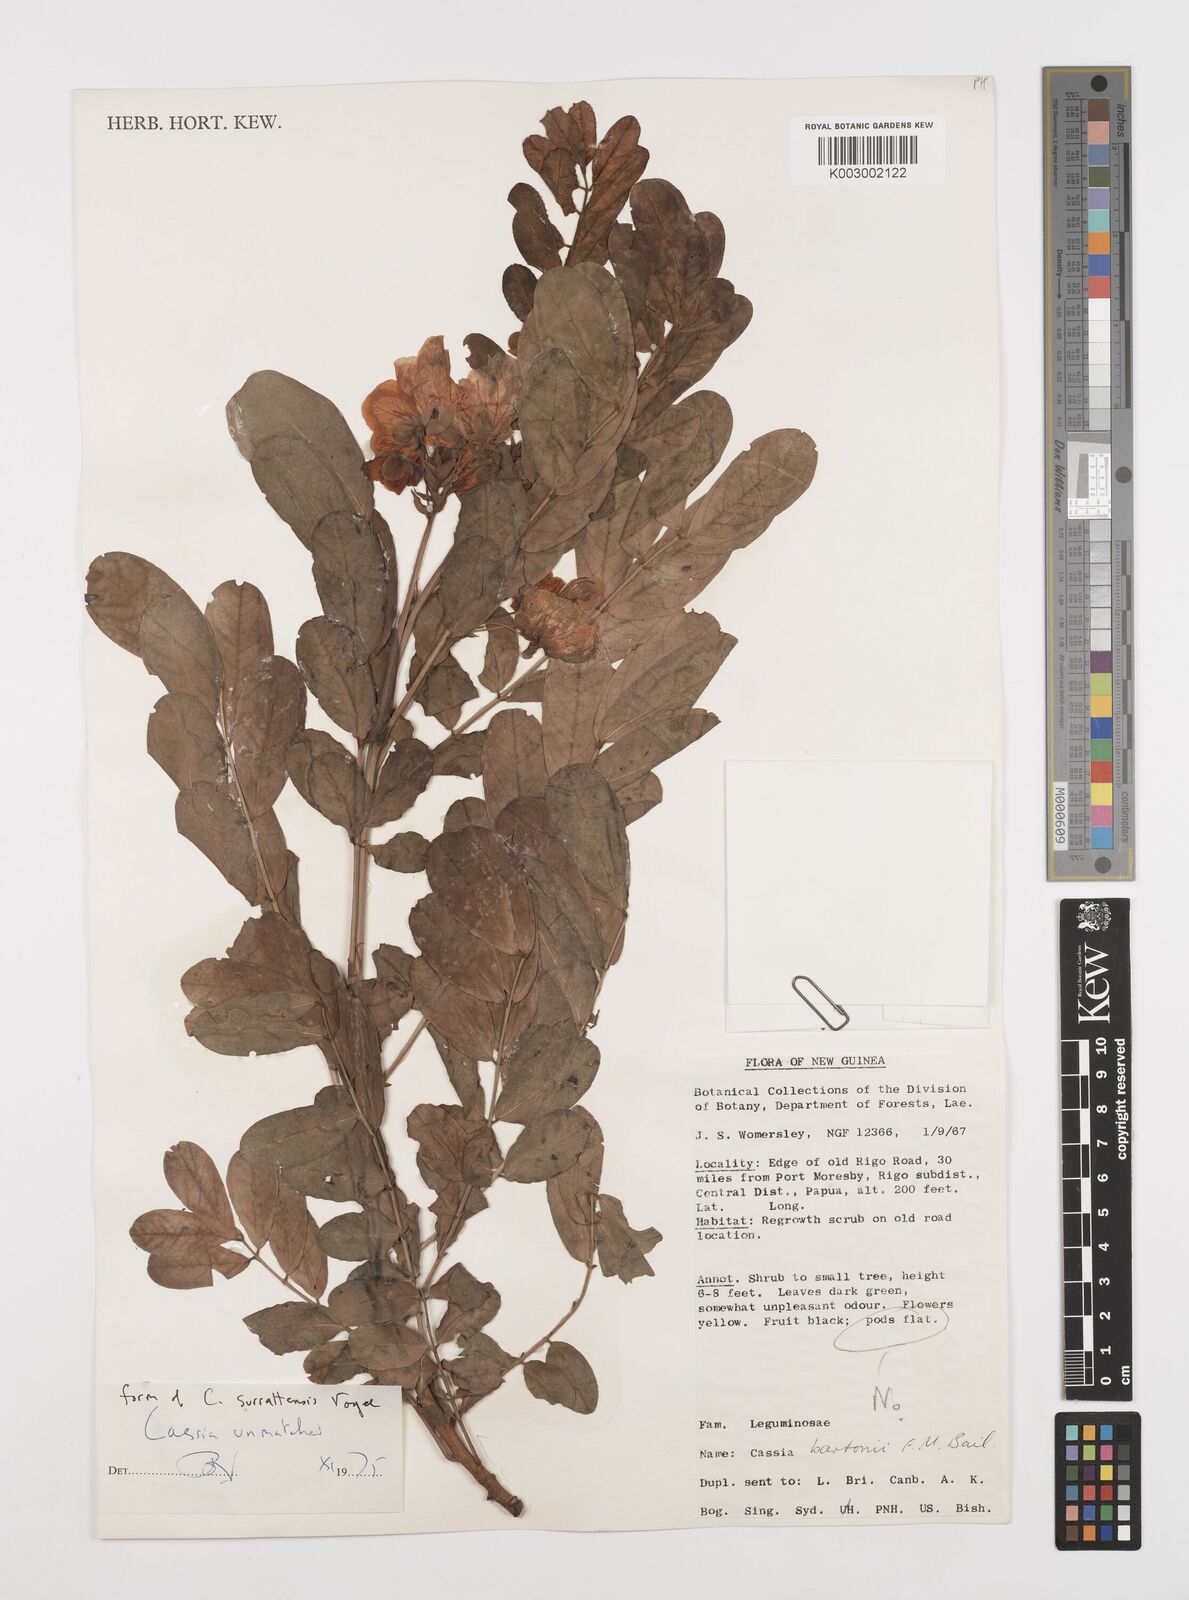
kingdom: Plantae
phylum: Tracheophyta
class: Magnoliopsida
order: Fabales
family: Fabaceae
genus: Senna
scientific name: Senna gaudichaudii
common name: Climbing cassia
